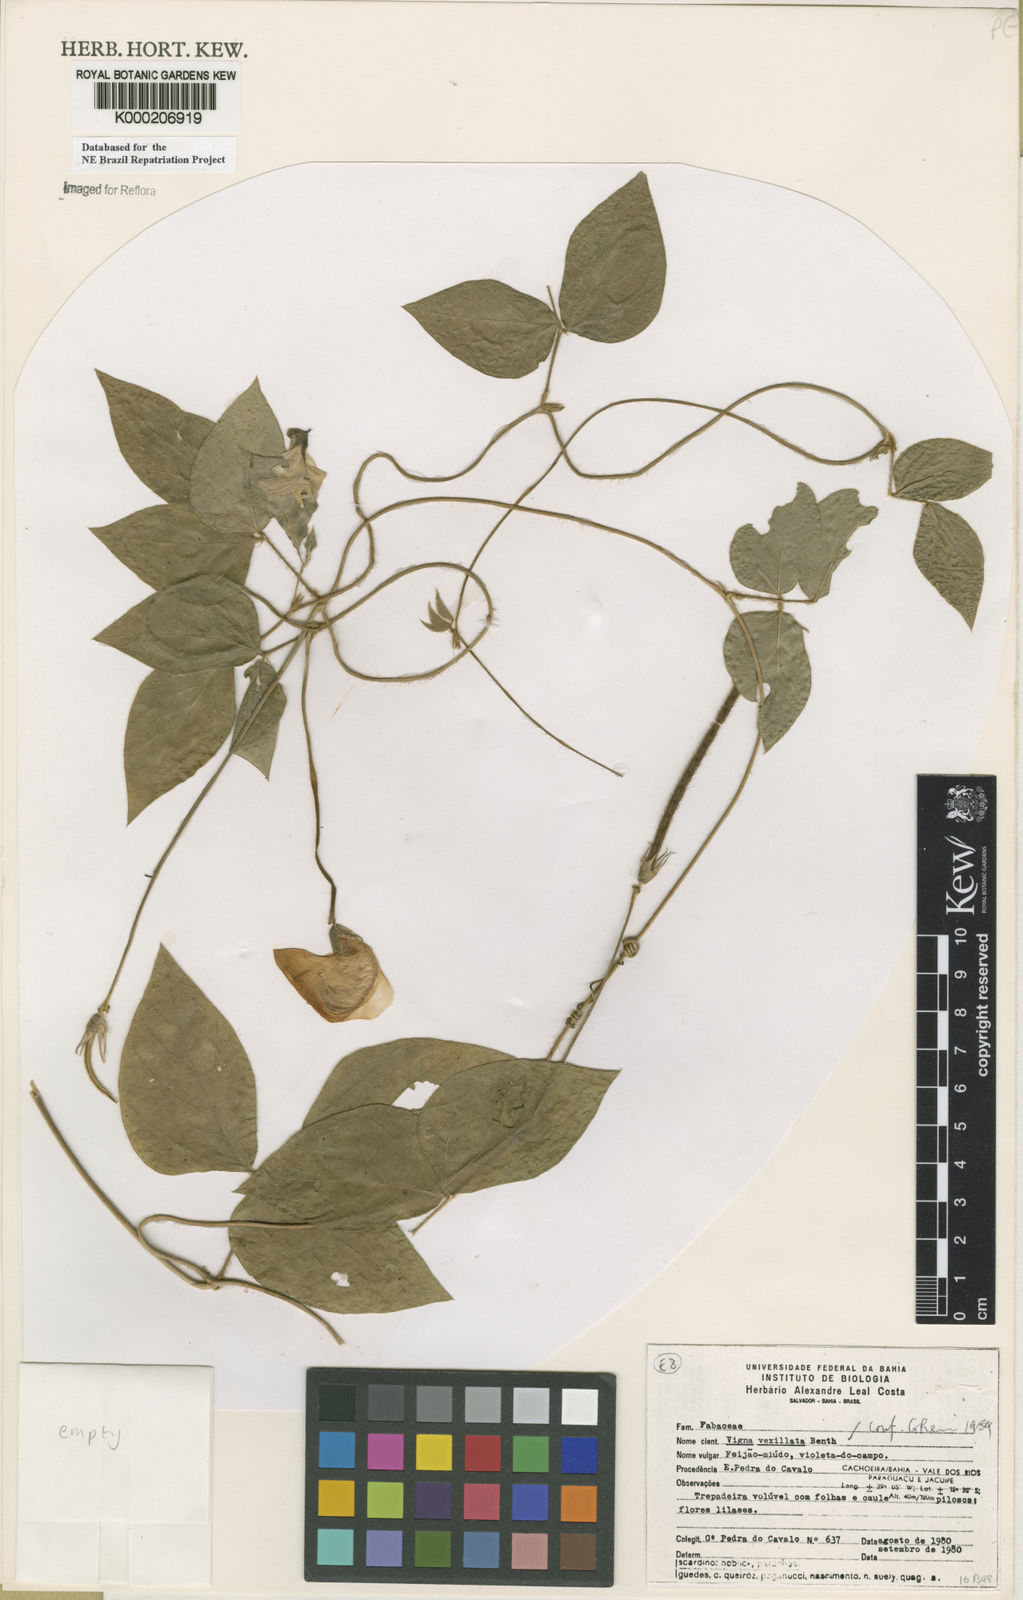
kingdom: Plantae
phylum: Tracheophyta
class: Magnoliopsida
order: Fabales
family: Fabaceae
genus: Vigna
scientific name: Vigna vexillata
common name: Zombi pea
